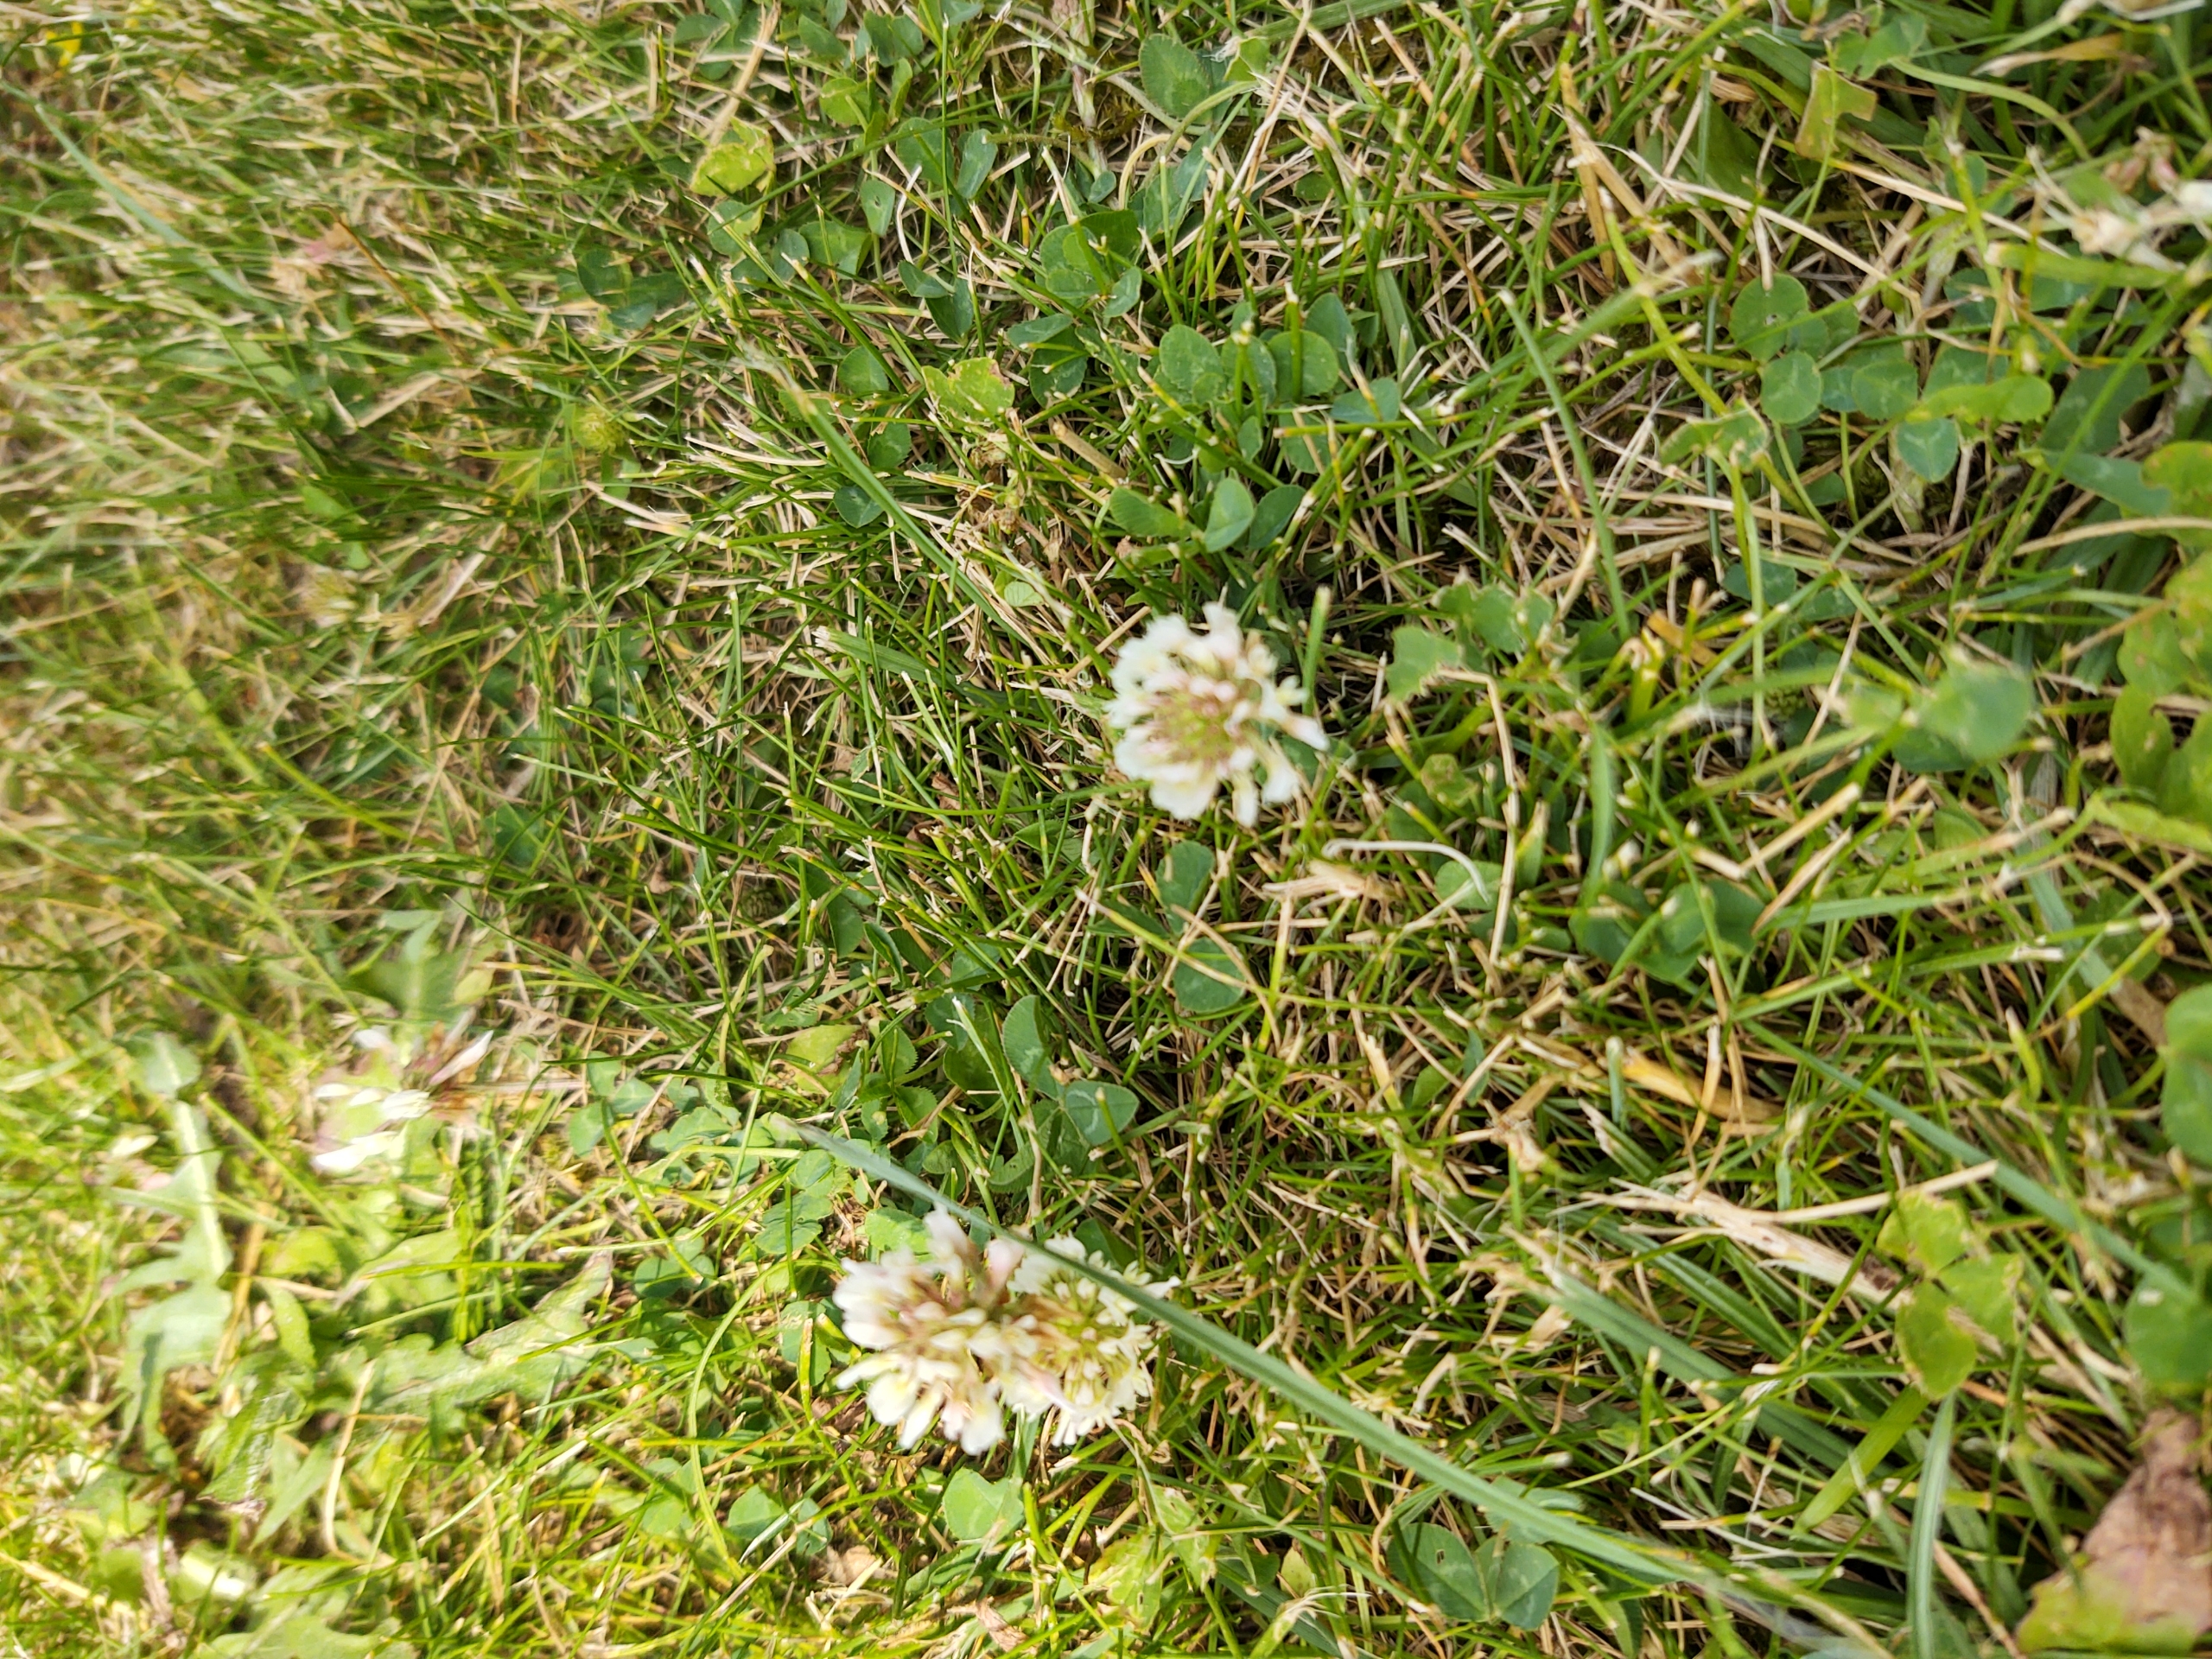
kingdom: Plantae
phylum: Tracheophyta
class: Magnoliopsida
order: Fabales
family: Fabaceae
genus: Trifolium
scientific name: Trifolium repens
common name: Hvid-kløver
